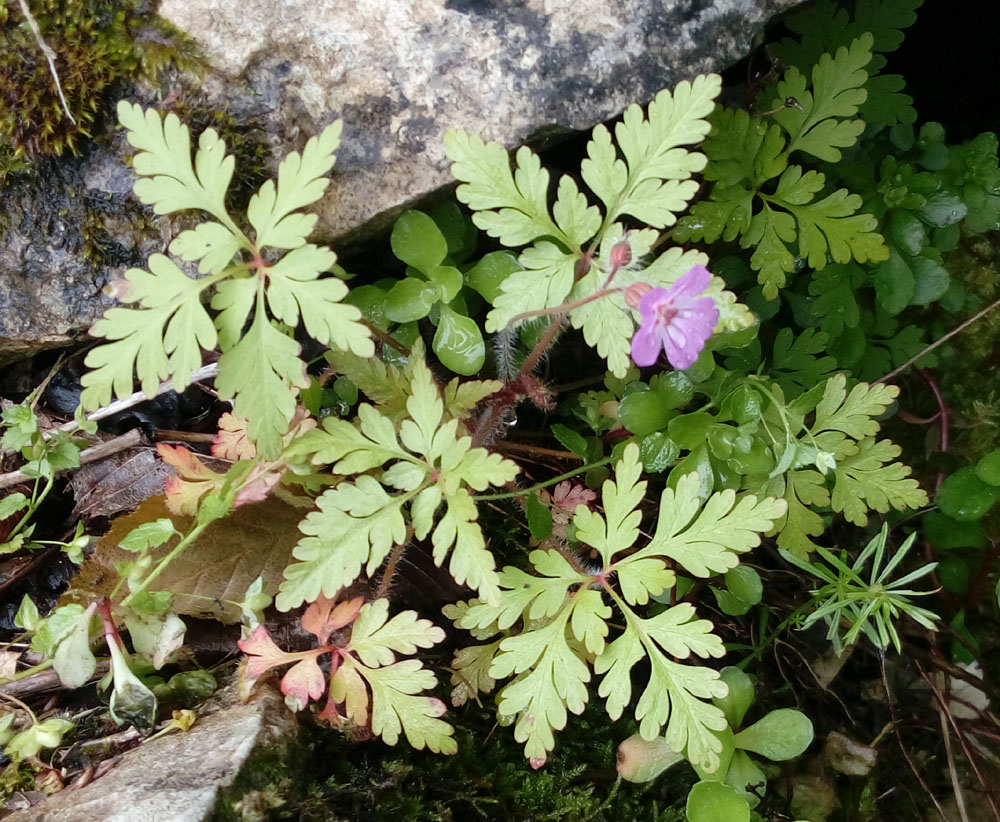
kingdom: Plantae
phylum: Tracheophyta
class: Magnoliopsida
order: Geraniales
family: Geraniaceae
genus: Geranium
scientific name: Geranium robertianum
